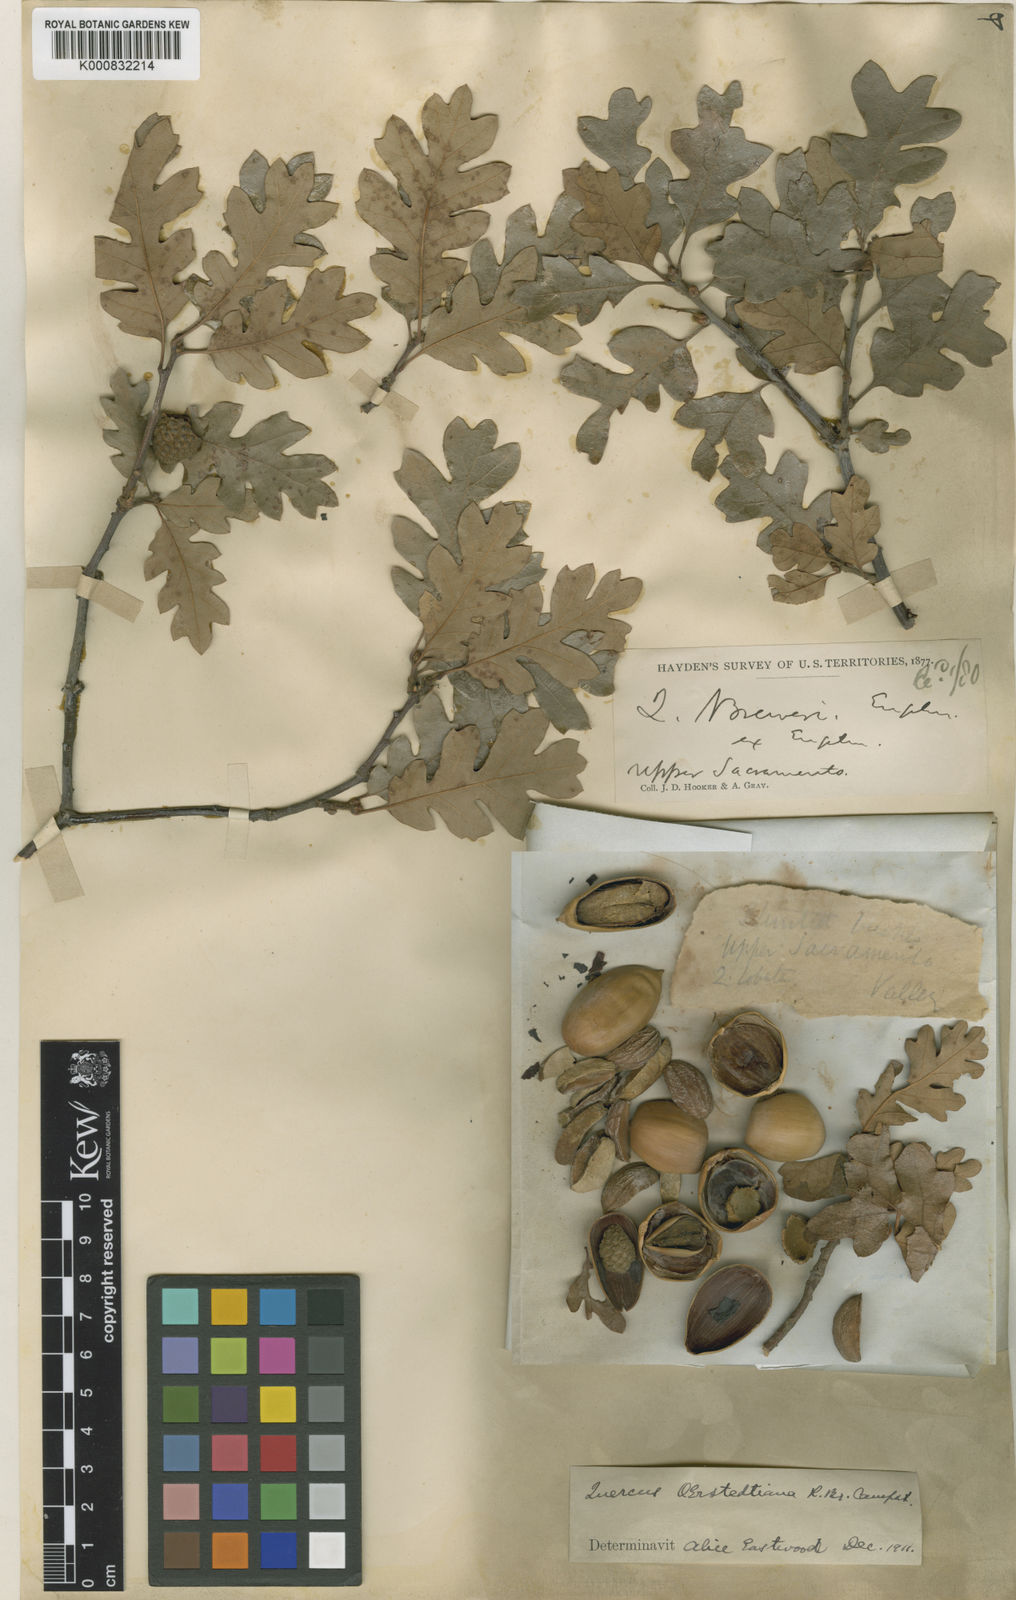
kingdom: Plantae
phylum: Tracheophyta
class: Magnoliopsida
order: Fagales
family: Fagaceae
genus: Quercus
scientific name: Quercus garryana
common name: Garry oak
